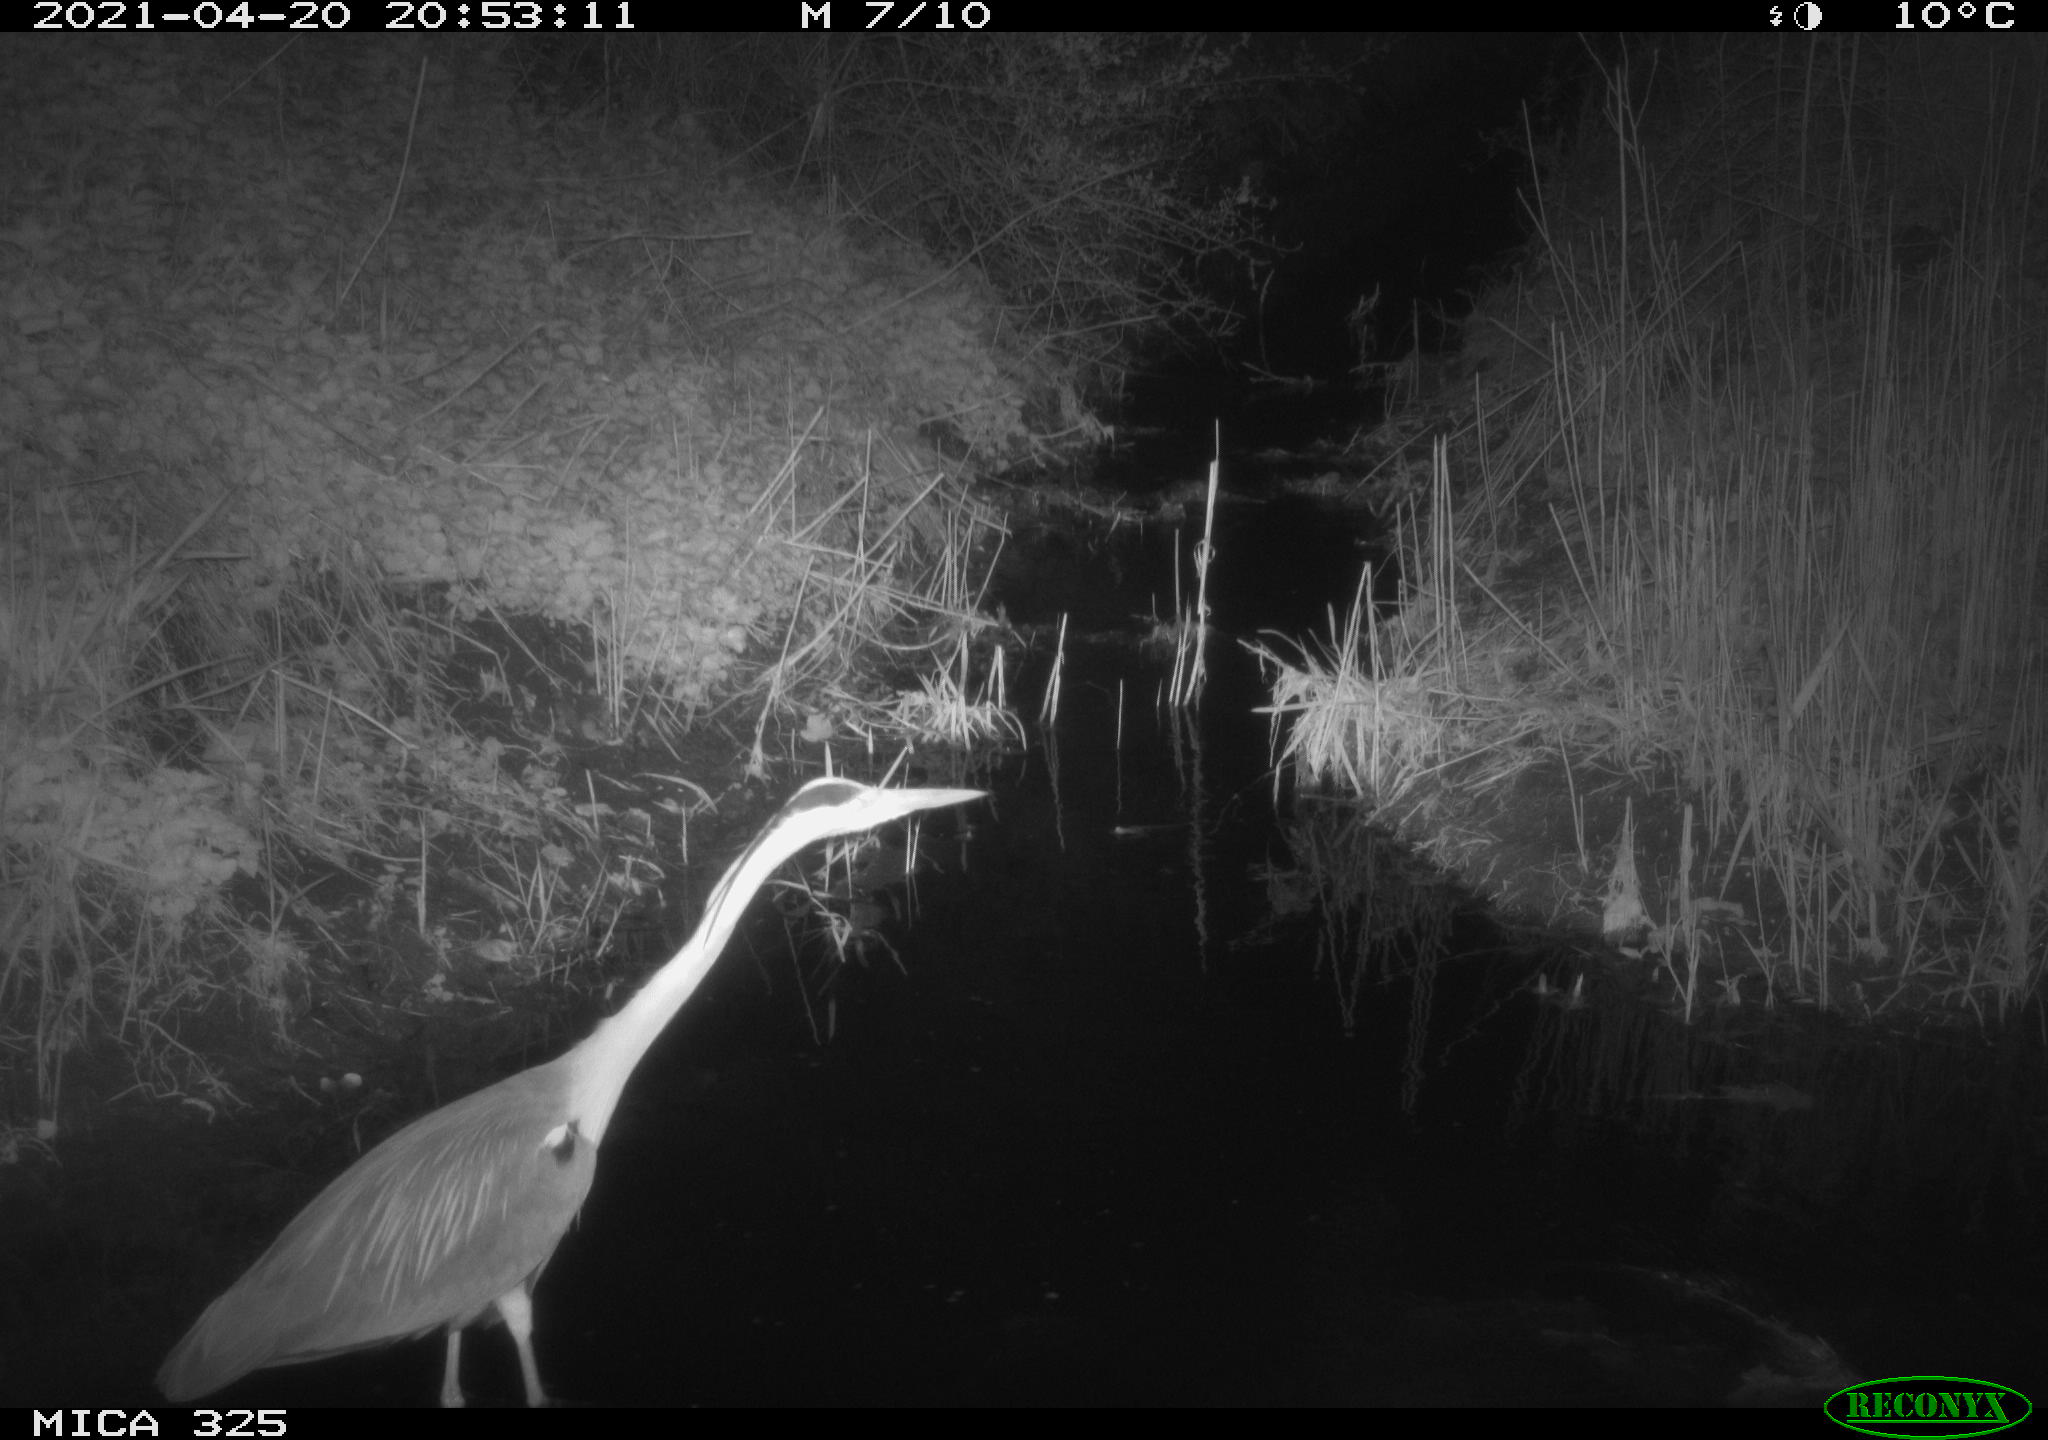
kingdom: Animalia
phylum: Chordata
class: Aves
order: Pelecaniformes
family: Ardeidae
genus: Ardea
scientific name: Ardea cinerea
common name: Grey heron
